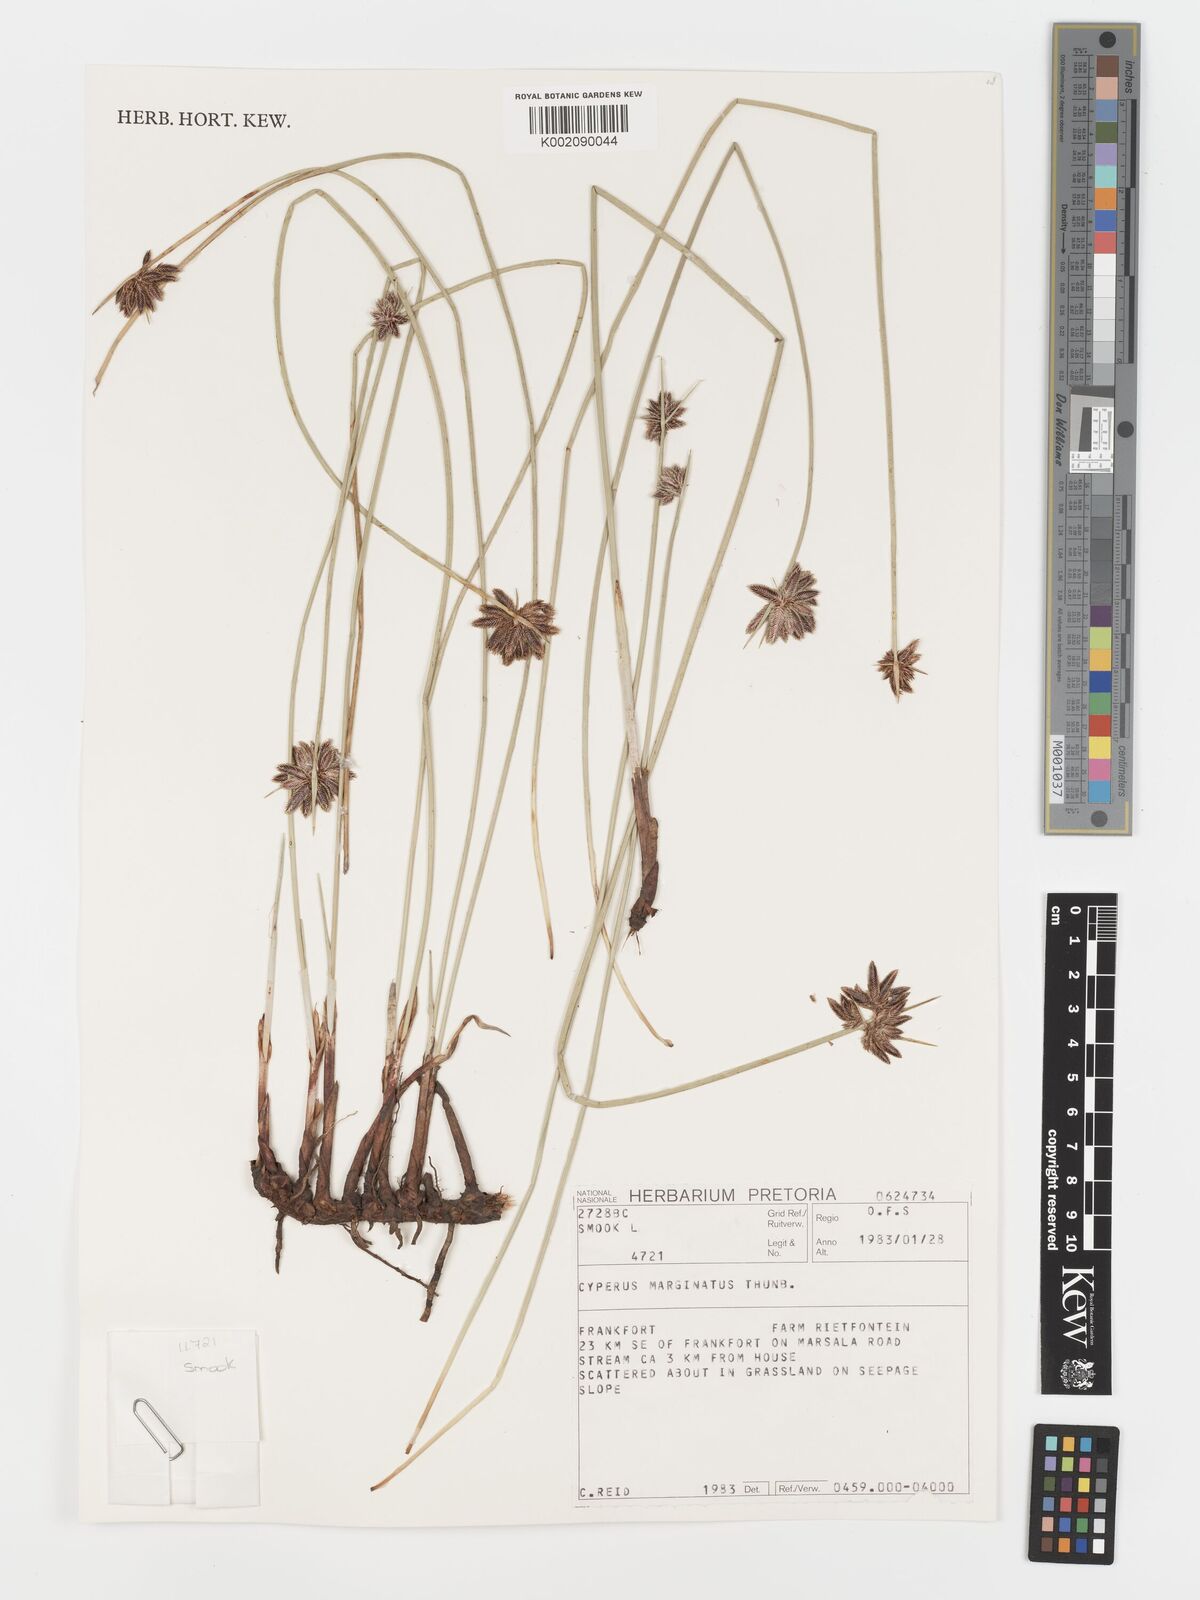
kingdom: Plantae
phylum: Tracheophyta
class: Liliopsida
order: Poales
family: Cyperaceae
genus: Cyperus
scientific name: Cyperus marginatus
